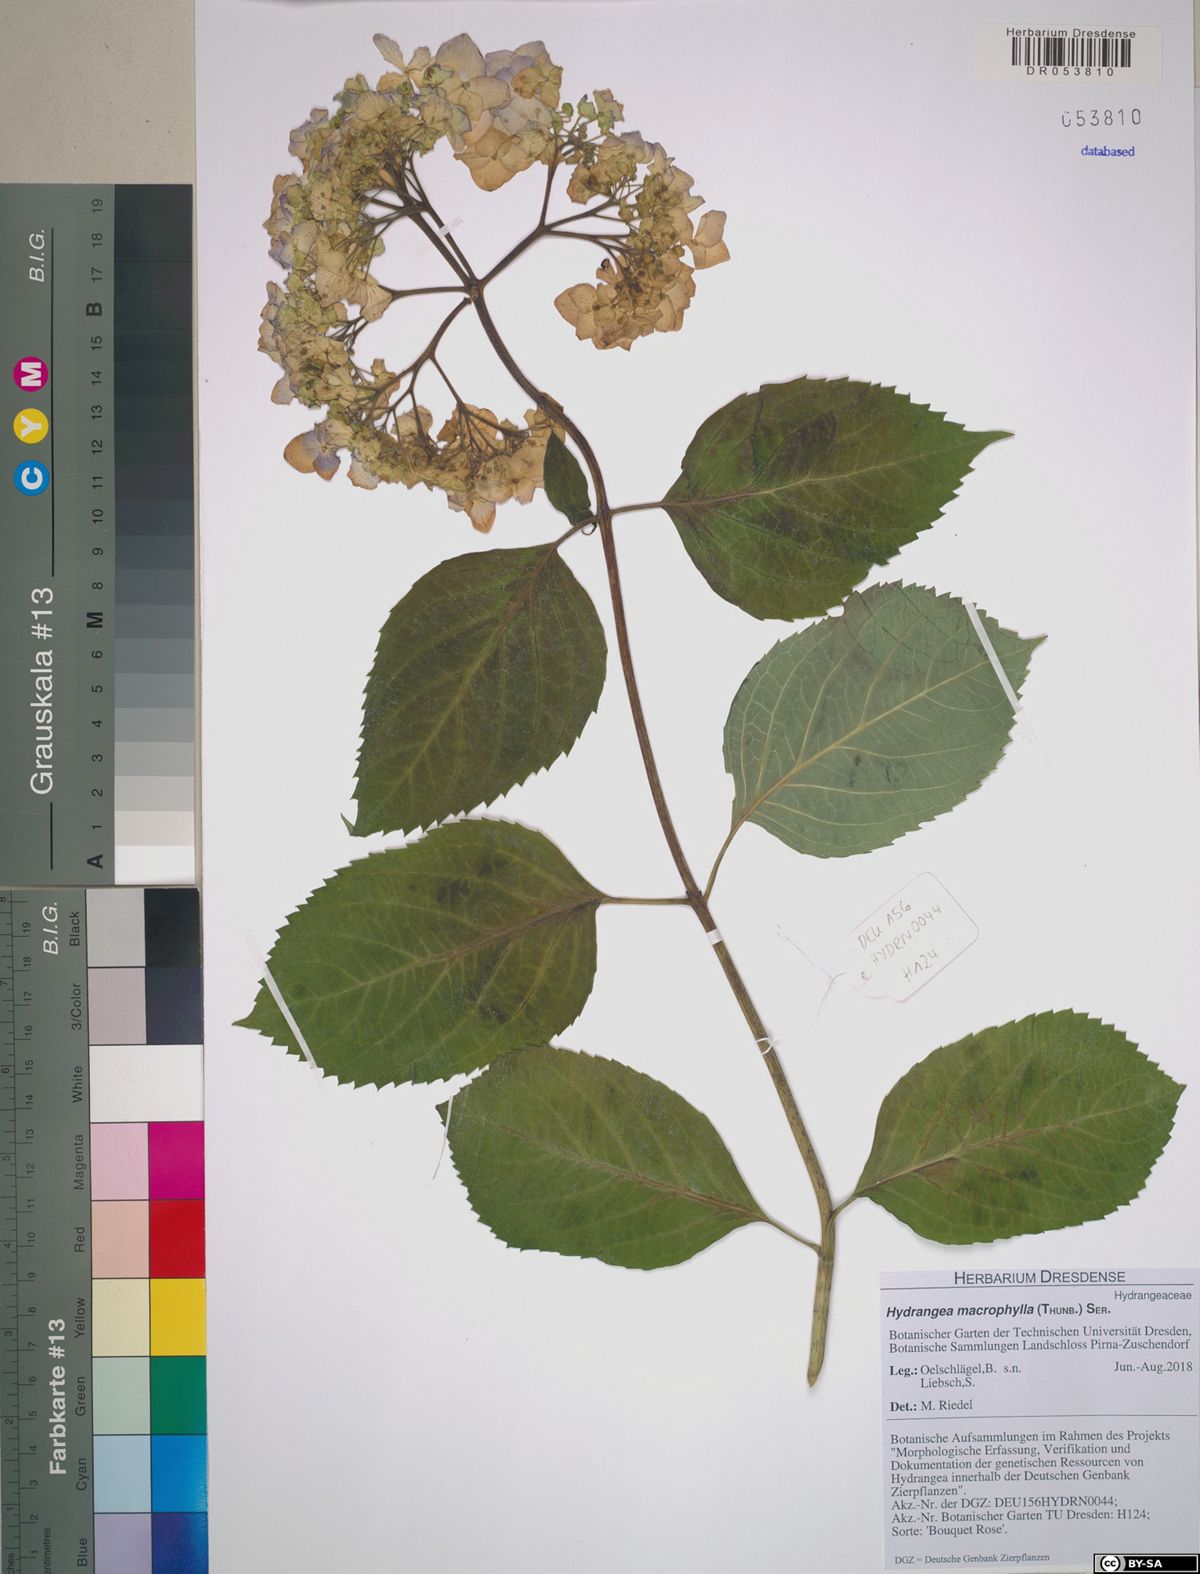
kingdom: Plantae
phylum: Tracheophyta
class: Magnoliopsida
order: Cornales
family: Hydrangeaceae
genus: Hydrangea
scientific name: Hydrangea macrophylla
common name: Hydrangea
